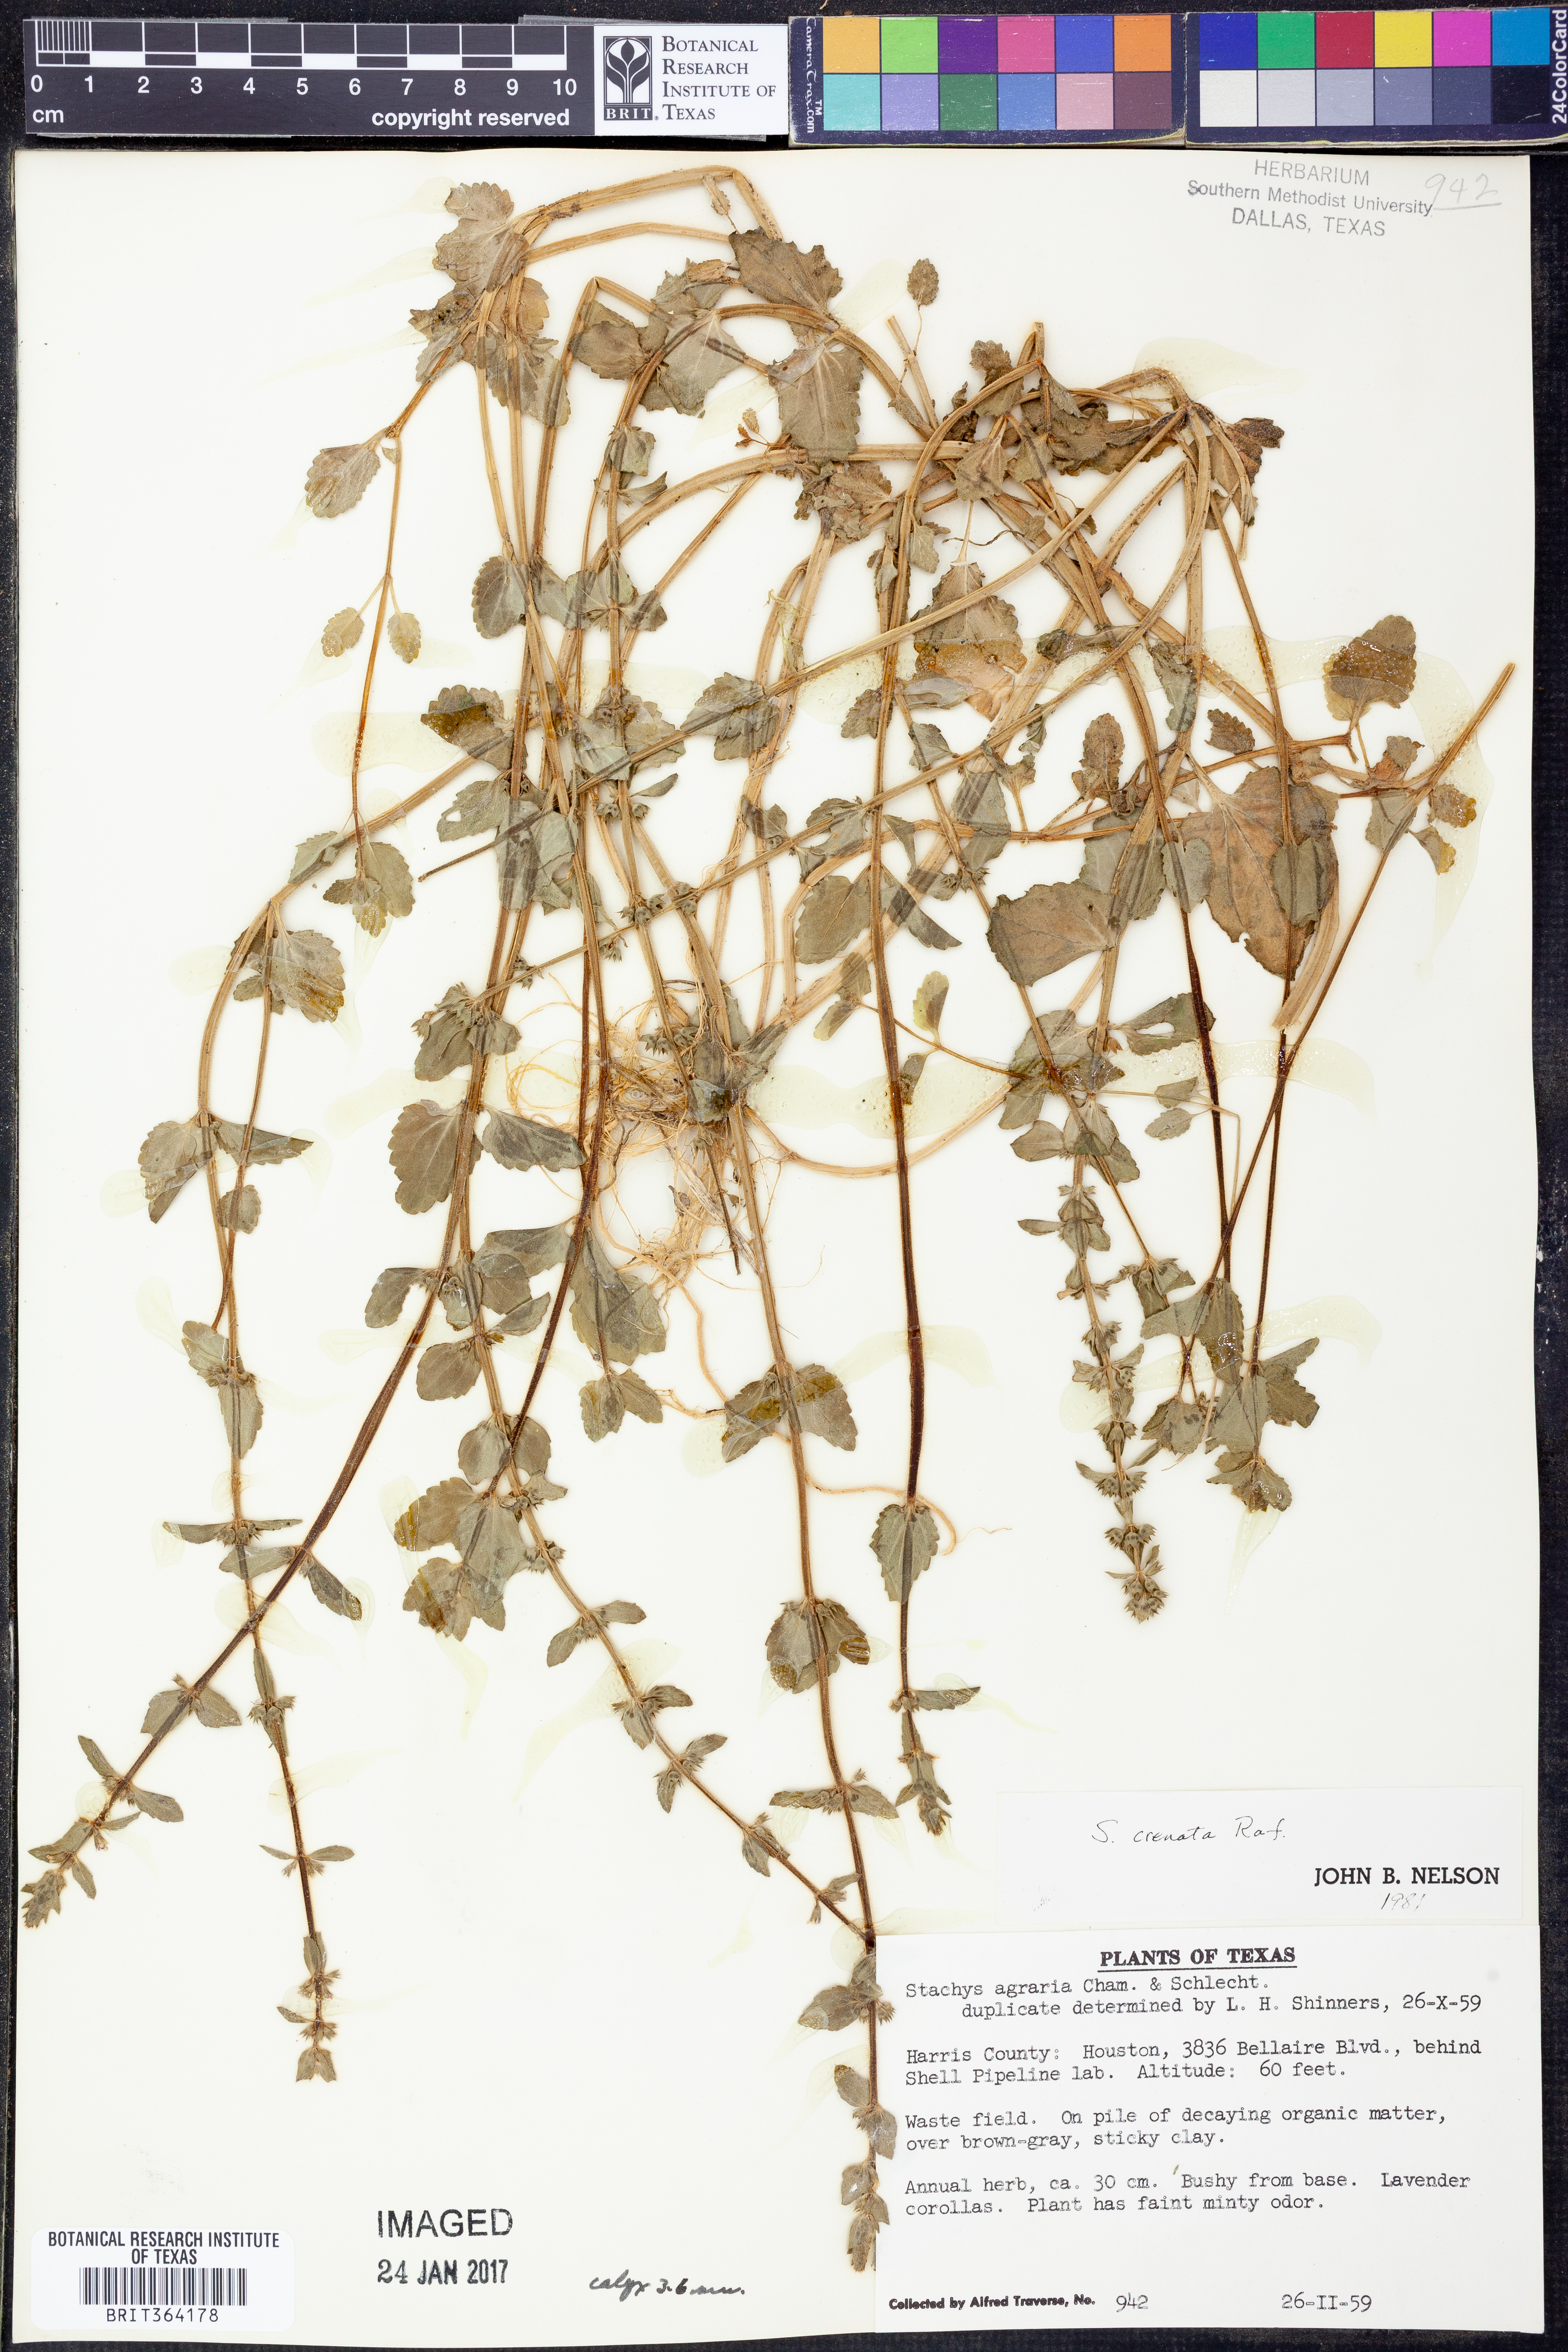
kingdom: Plantae
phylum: Tracheophyta
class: Magnoliopsida
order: Lamiales
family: Lamiaceae
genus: Stachys
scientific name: Stachys agraria
